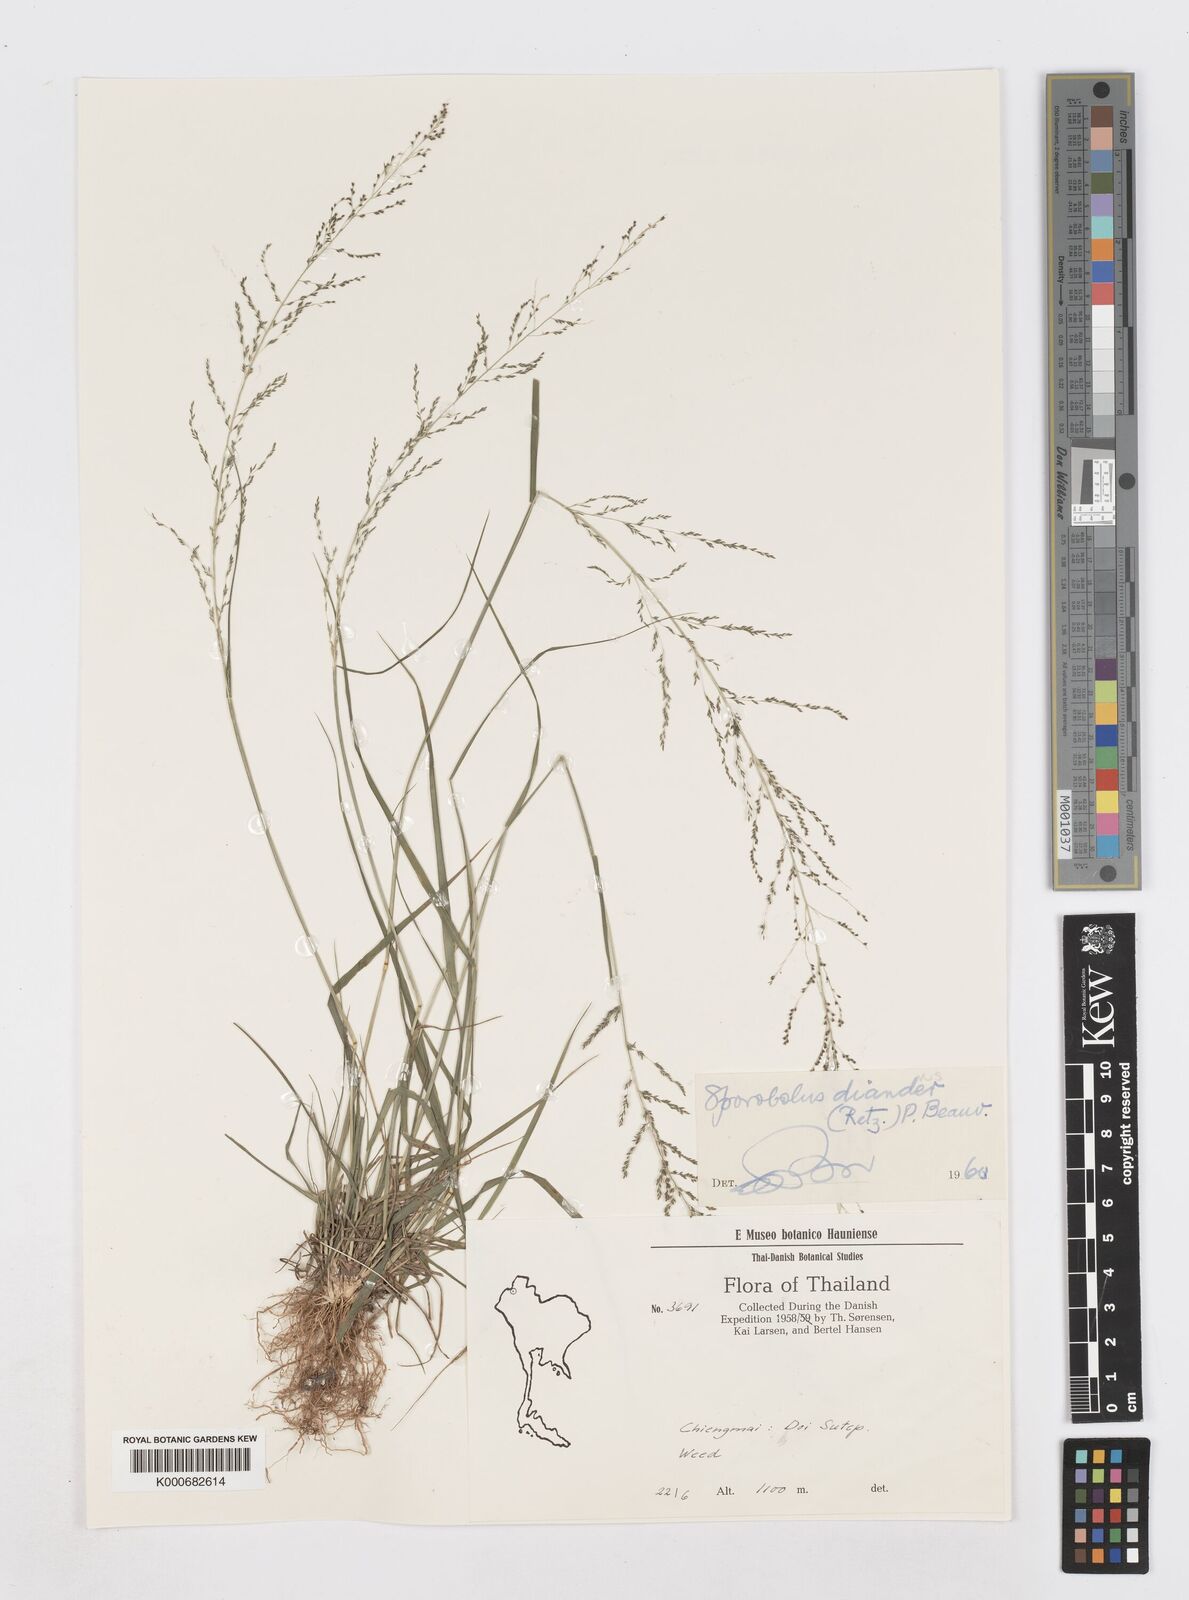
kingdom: Plantae
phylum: Tracheophyta
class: Liliopsida
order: Poales
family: Poaceae
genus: Sporobolus
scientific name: Sporobolus diandrus
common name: Tussock dropseed
